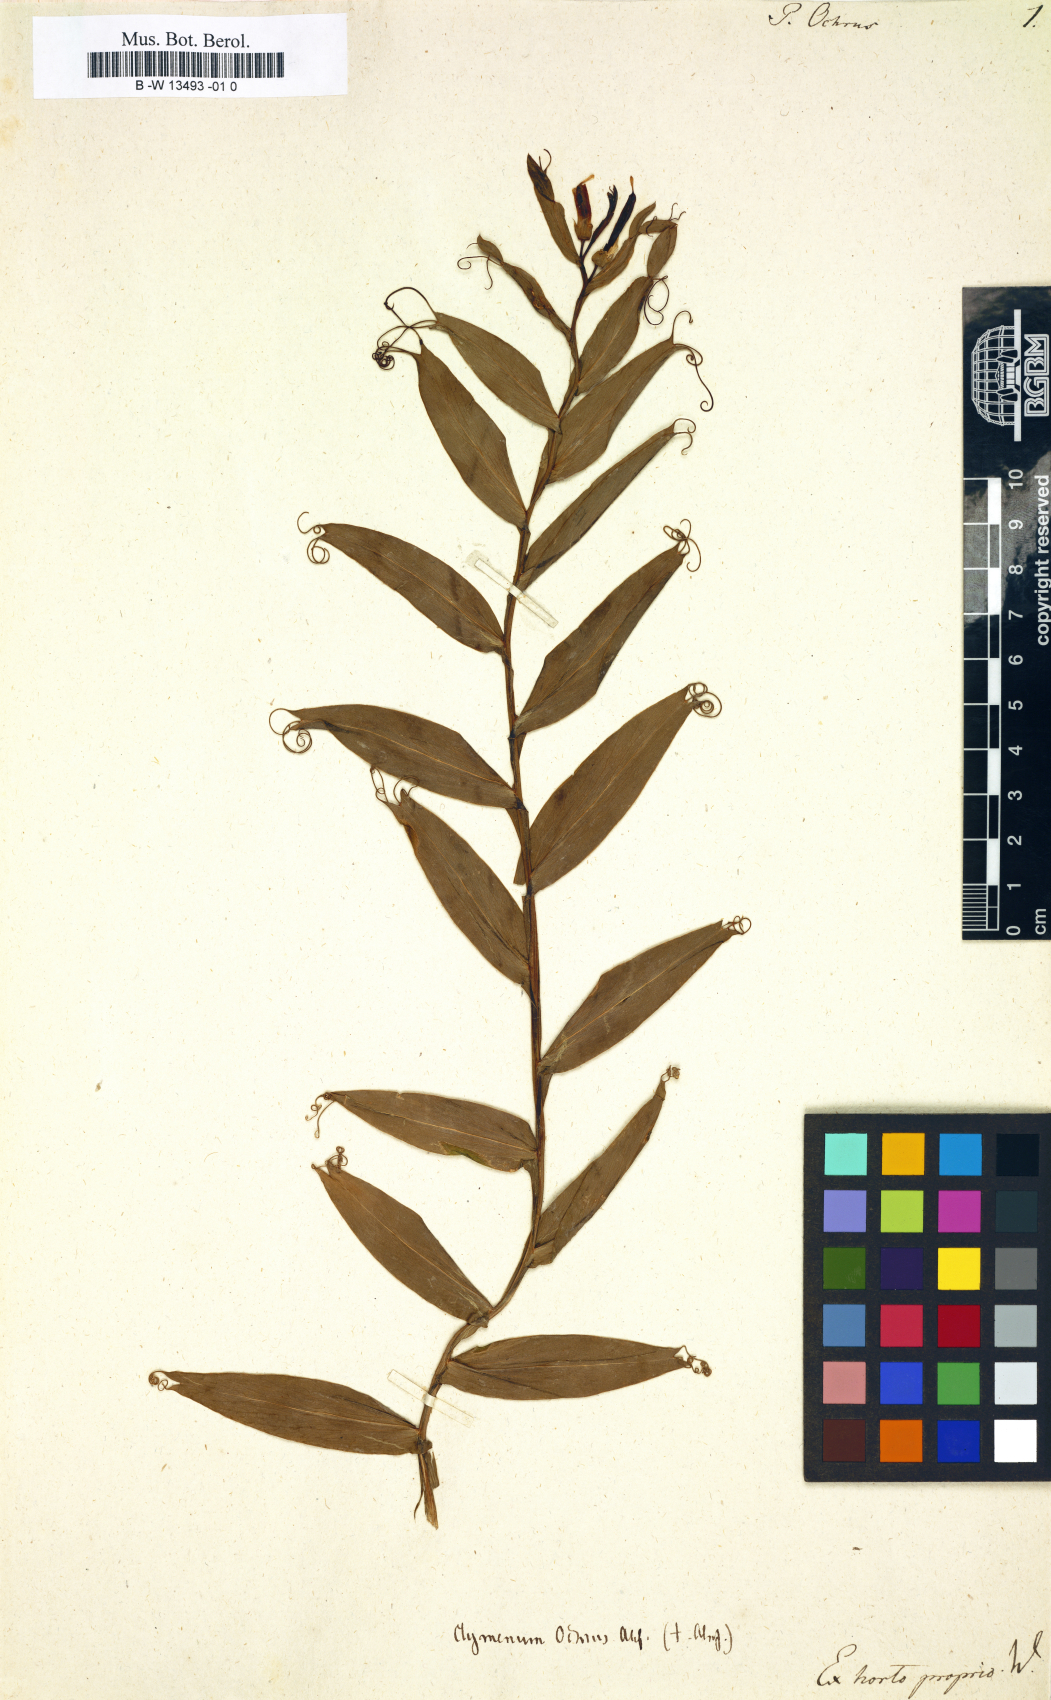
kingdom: Plantae
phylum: Tracheophyta
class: Magnoliopsida
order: Fabales
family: Fabaceae
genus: Lathyrus
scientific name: Lathyrus ochrus
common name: Winged vetchling
